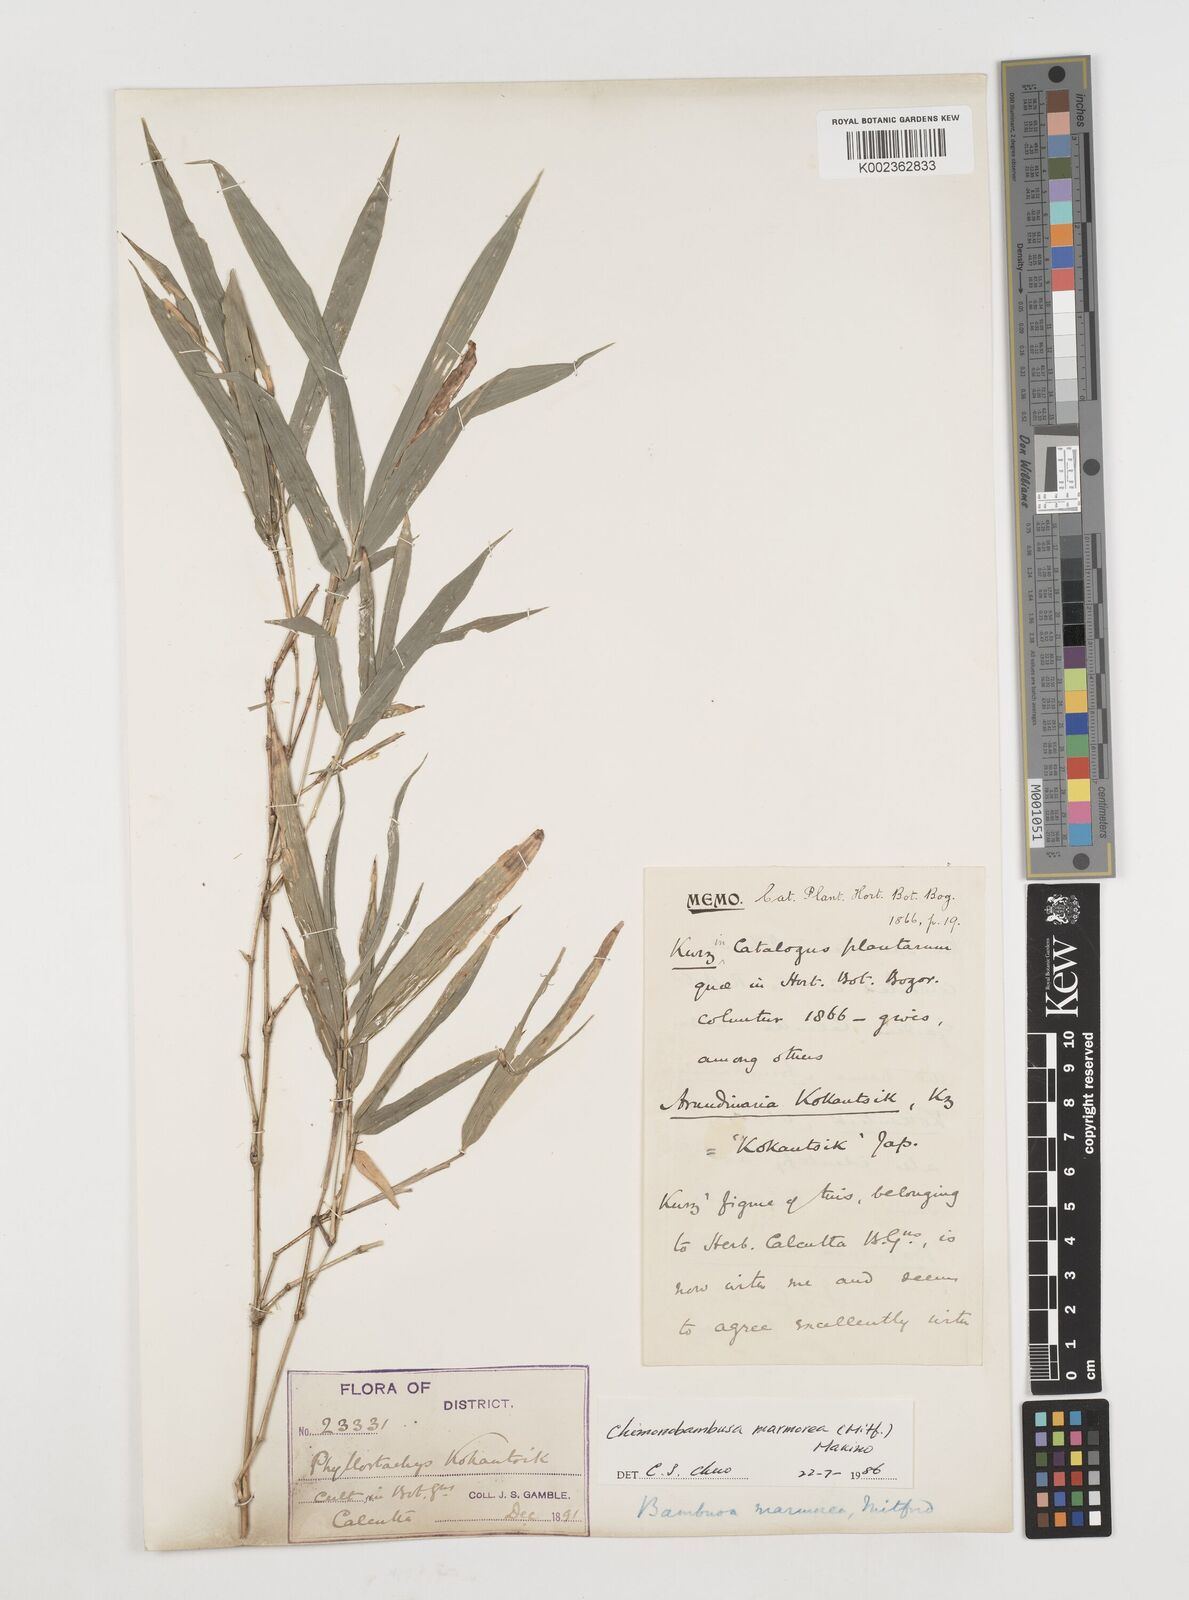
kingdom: Plantae
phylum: Tracheophyta
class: Liliopsida
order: Poales
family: Poaceae
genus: Chimonobambusa
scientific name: Chimonobambusa marmorea
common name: Marbled bamboo
